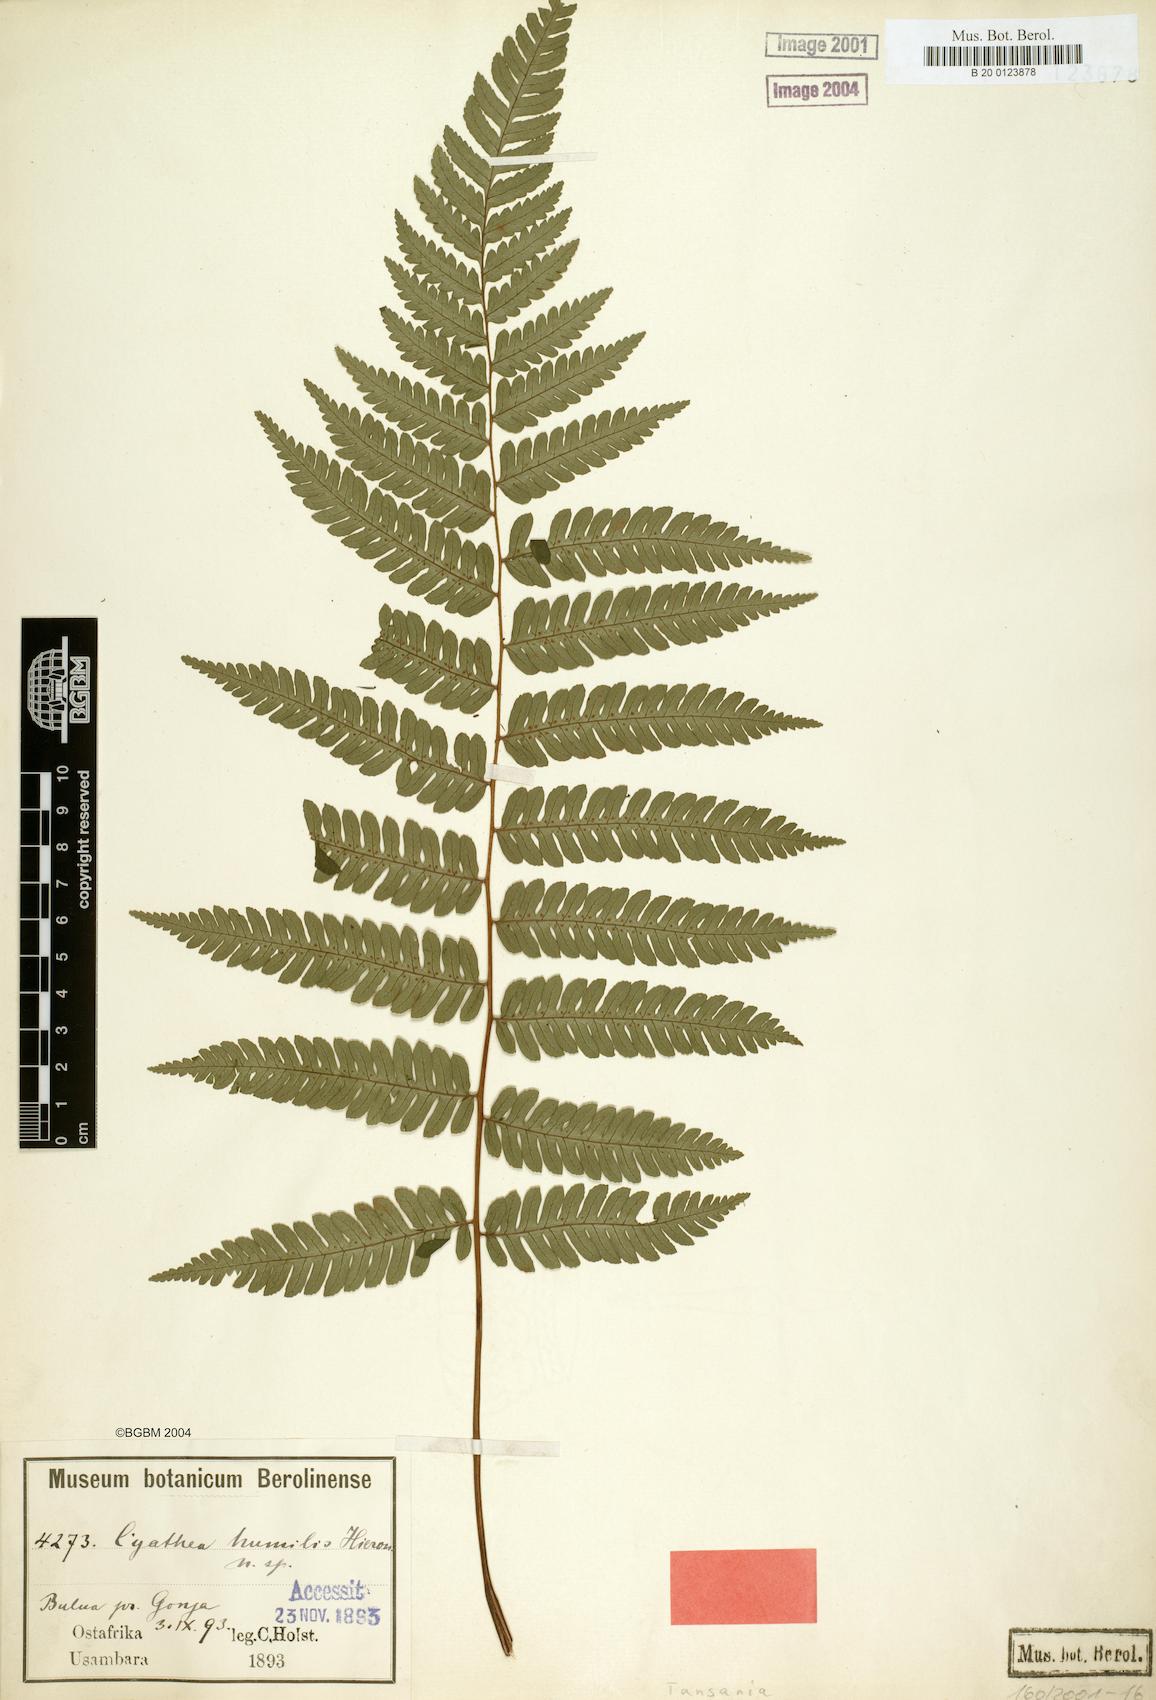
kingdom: Plantae
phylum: Tracheophyta
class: Polypodiopsida
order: Cyatheales
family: Cyatheaceae
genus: Alsophila
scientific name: Alsophila humilis
